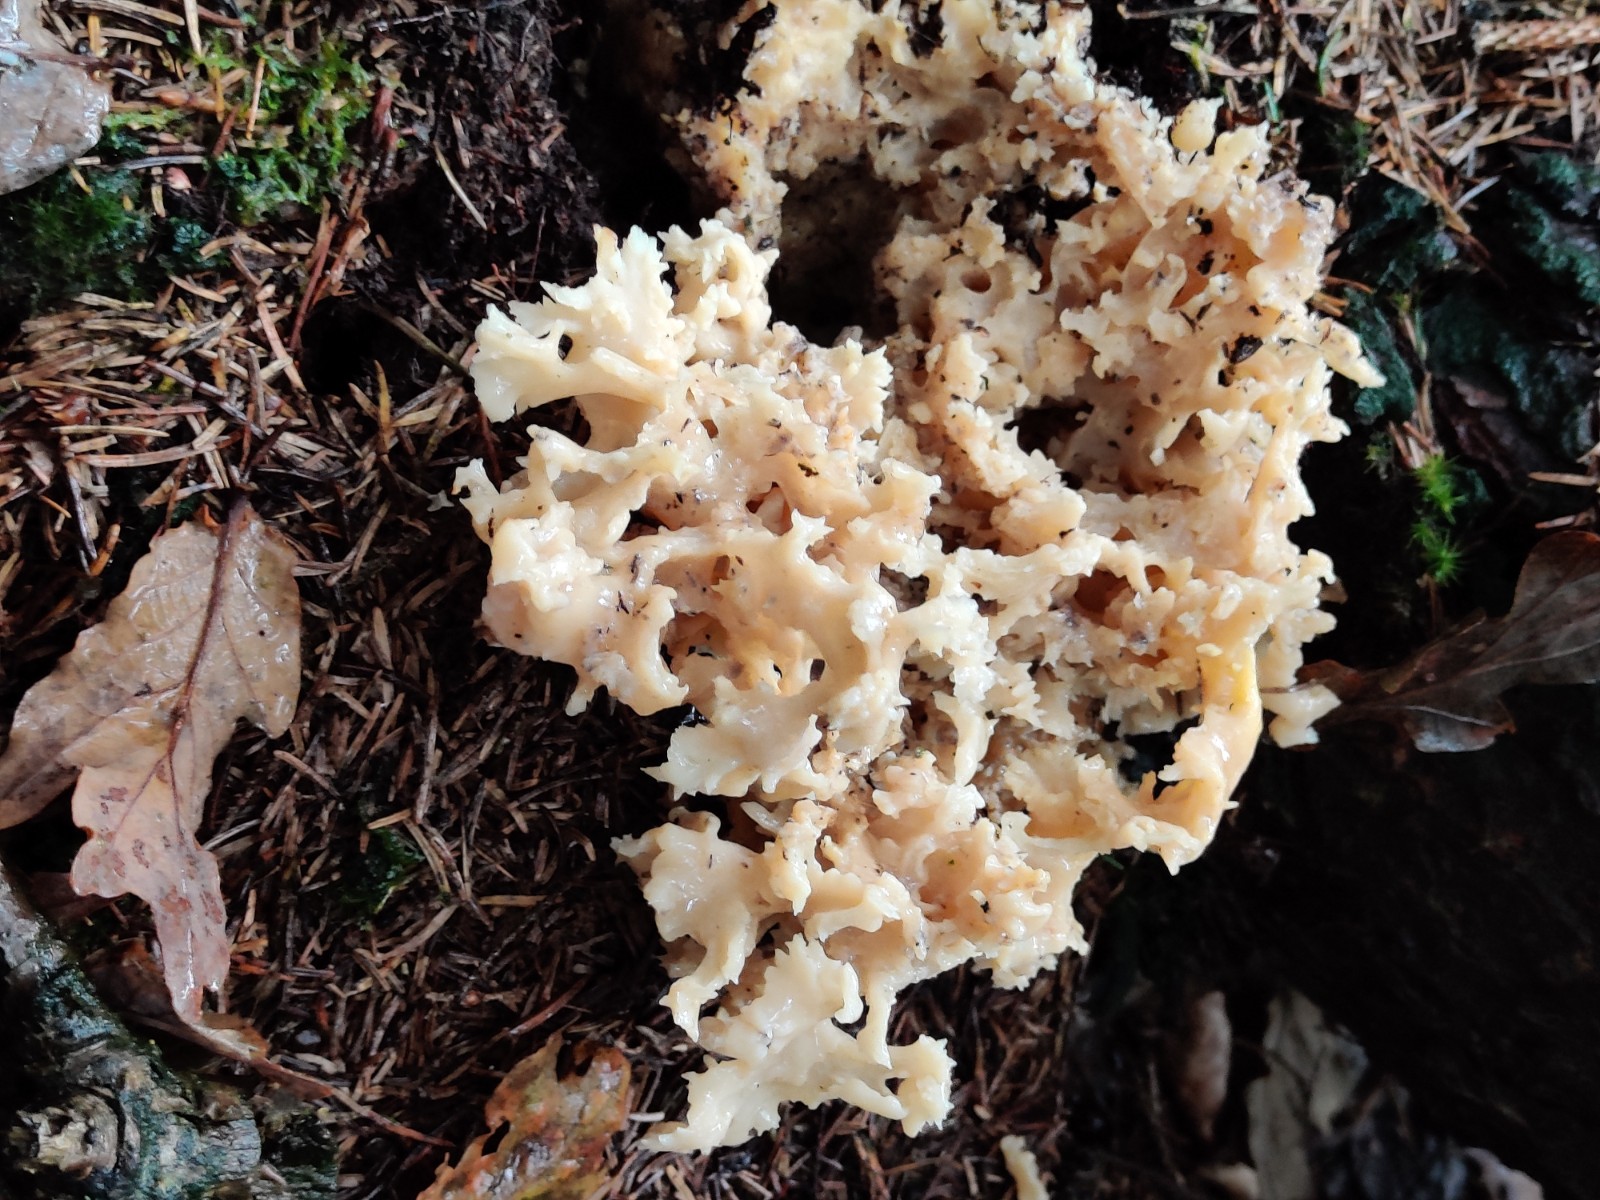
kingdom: Fungi
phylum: Basidiomycota
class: Agaricomycetes
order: Polyporales
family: Sparassidaceae
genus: Sparassis
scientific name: Sparassis crispa
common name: kruset blomkålssvamp
